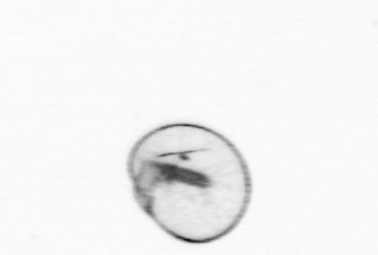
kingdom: Chromista
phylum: Myzozoa
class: Dinophyceae
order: Noctilucales
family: Noctilucaceae
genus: Noctiluca
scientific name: Noctiluca scintillans
